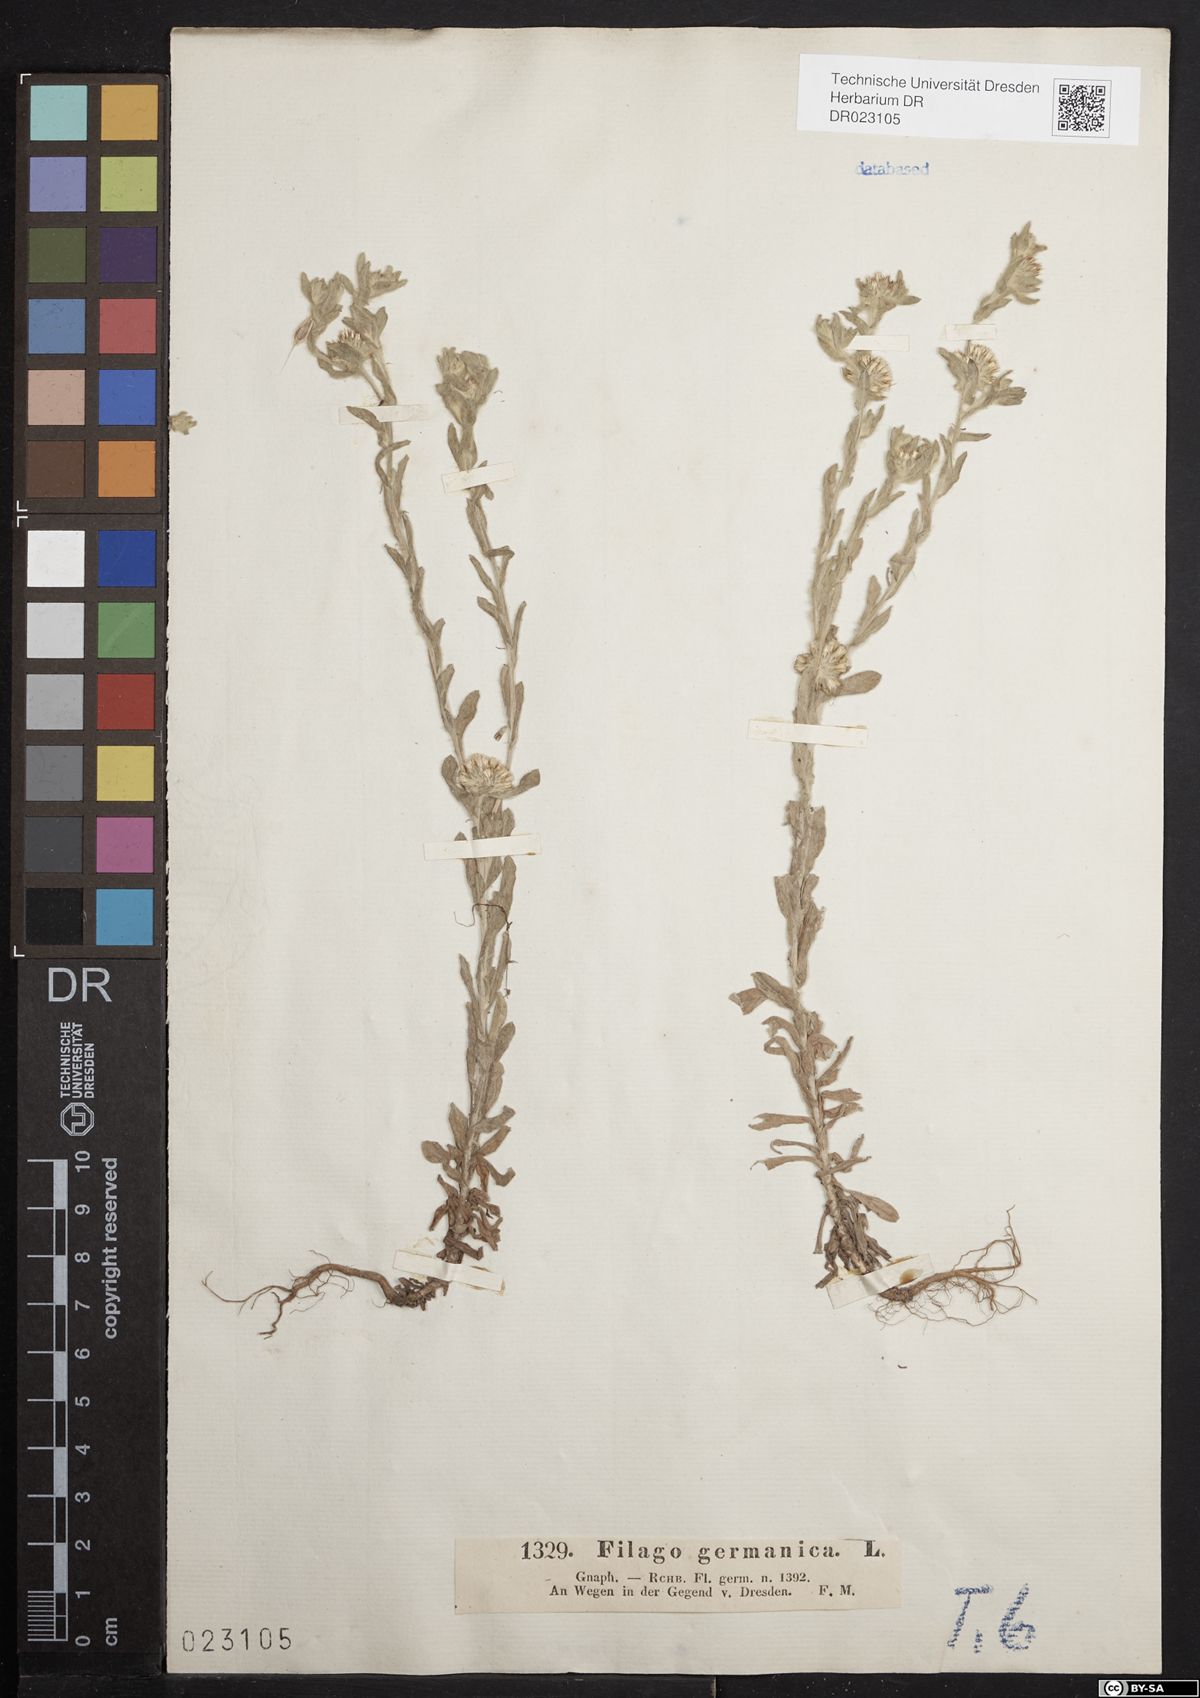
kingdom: Plantae
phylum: Tracheophyta
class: Magnoliopsida
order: Asterales
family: Asteraceae
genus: Filago
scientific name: Filago germanica
